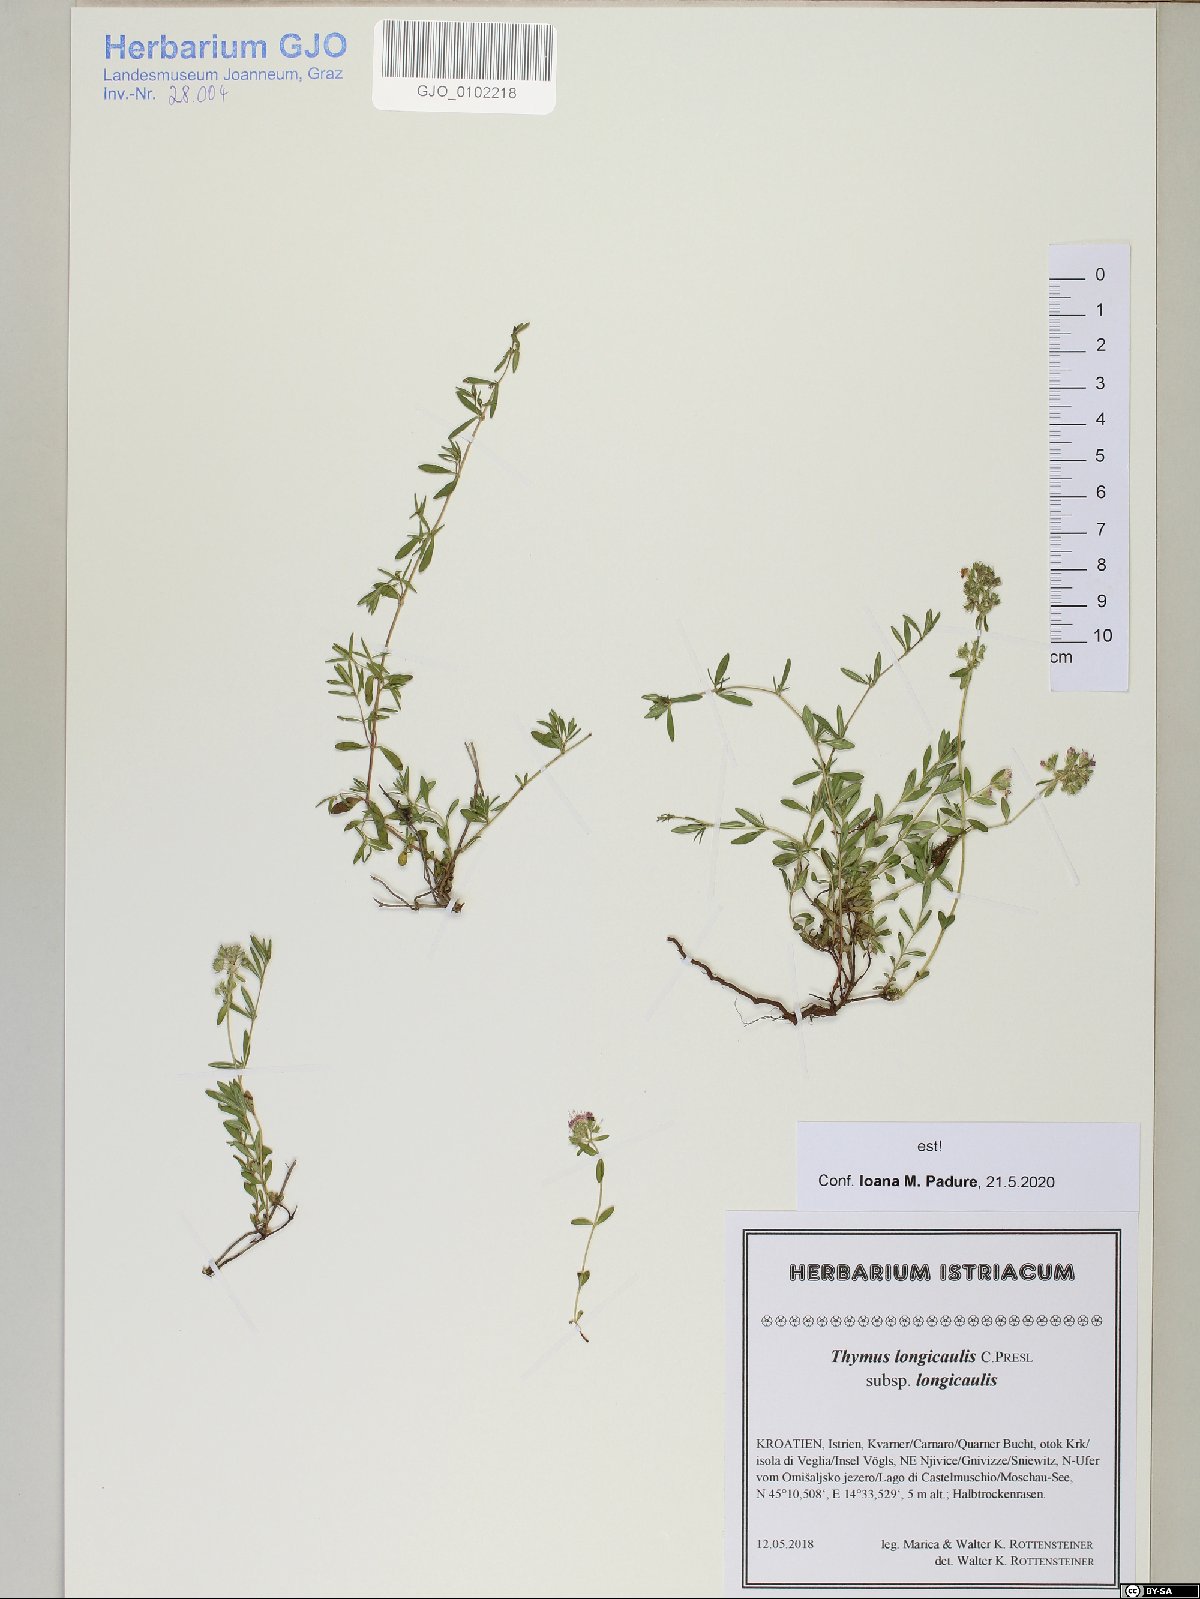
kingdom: Plantae
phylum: Tracheophyta
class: Magnoliopsida
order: Lamiales
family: Lamiaceae
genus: Thymus
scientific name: Thymus longicaulis
